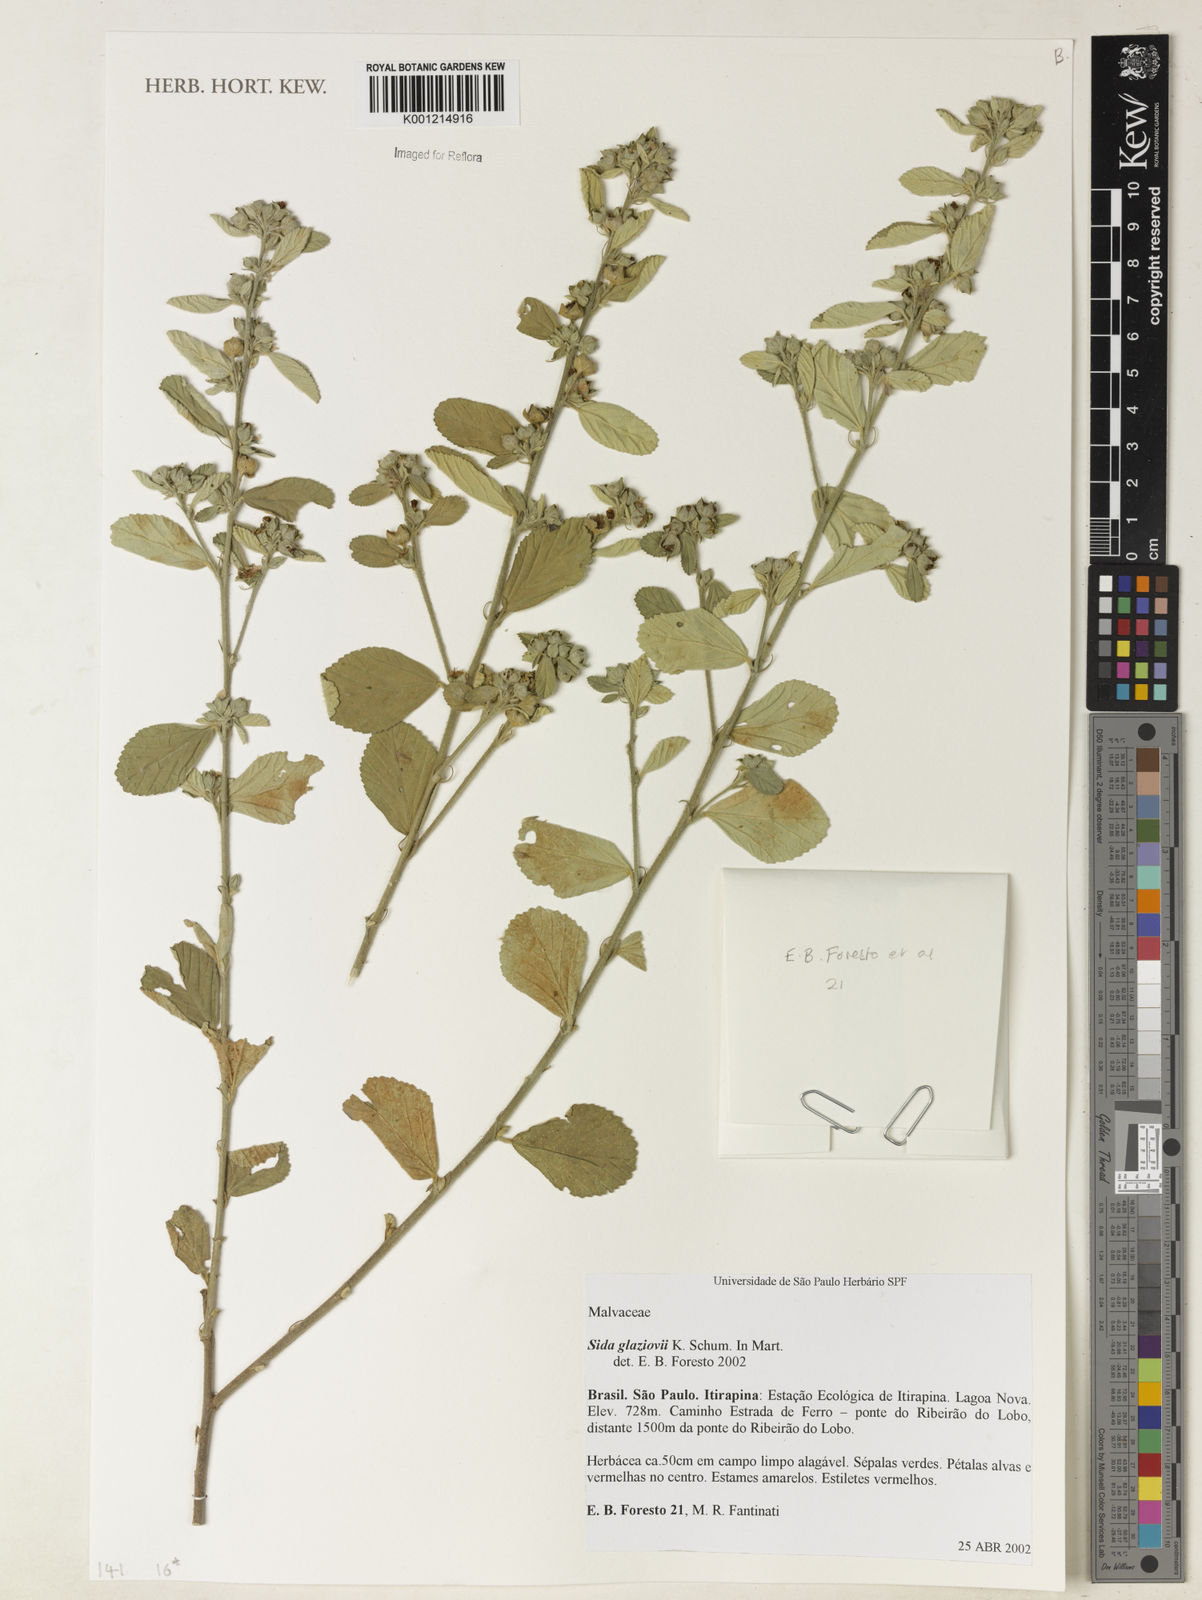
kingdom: Plantae
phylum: Tracheophyta
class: Magnoliopsida
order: Malvales
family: Malvaceae
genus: Sida
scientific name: Sida glaziovii
